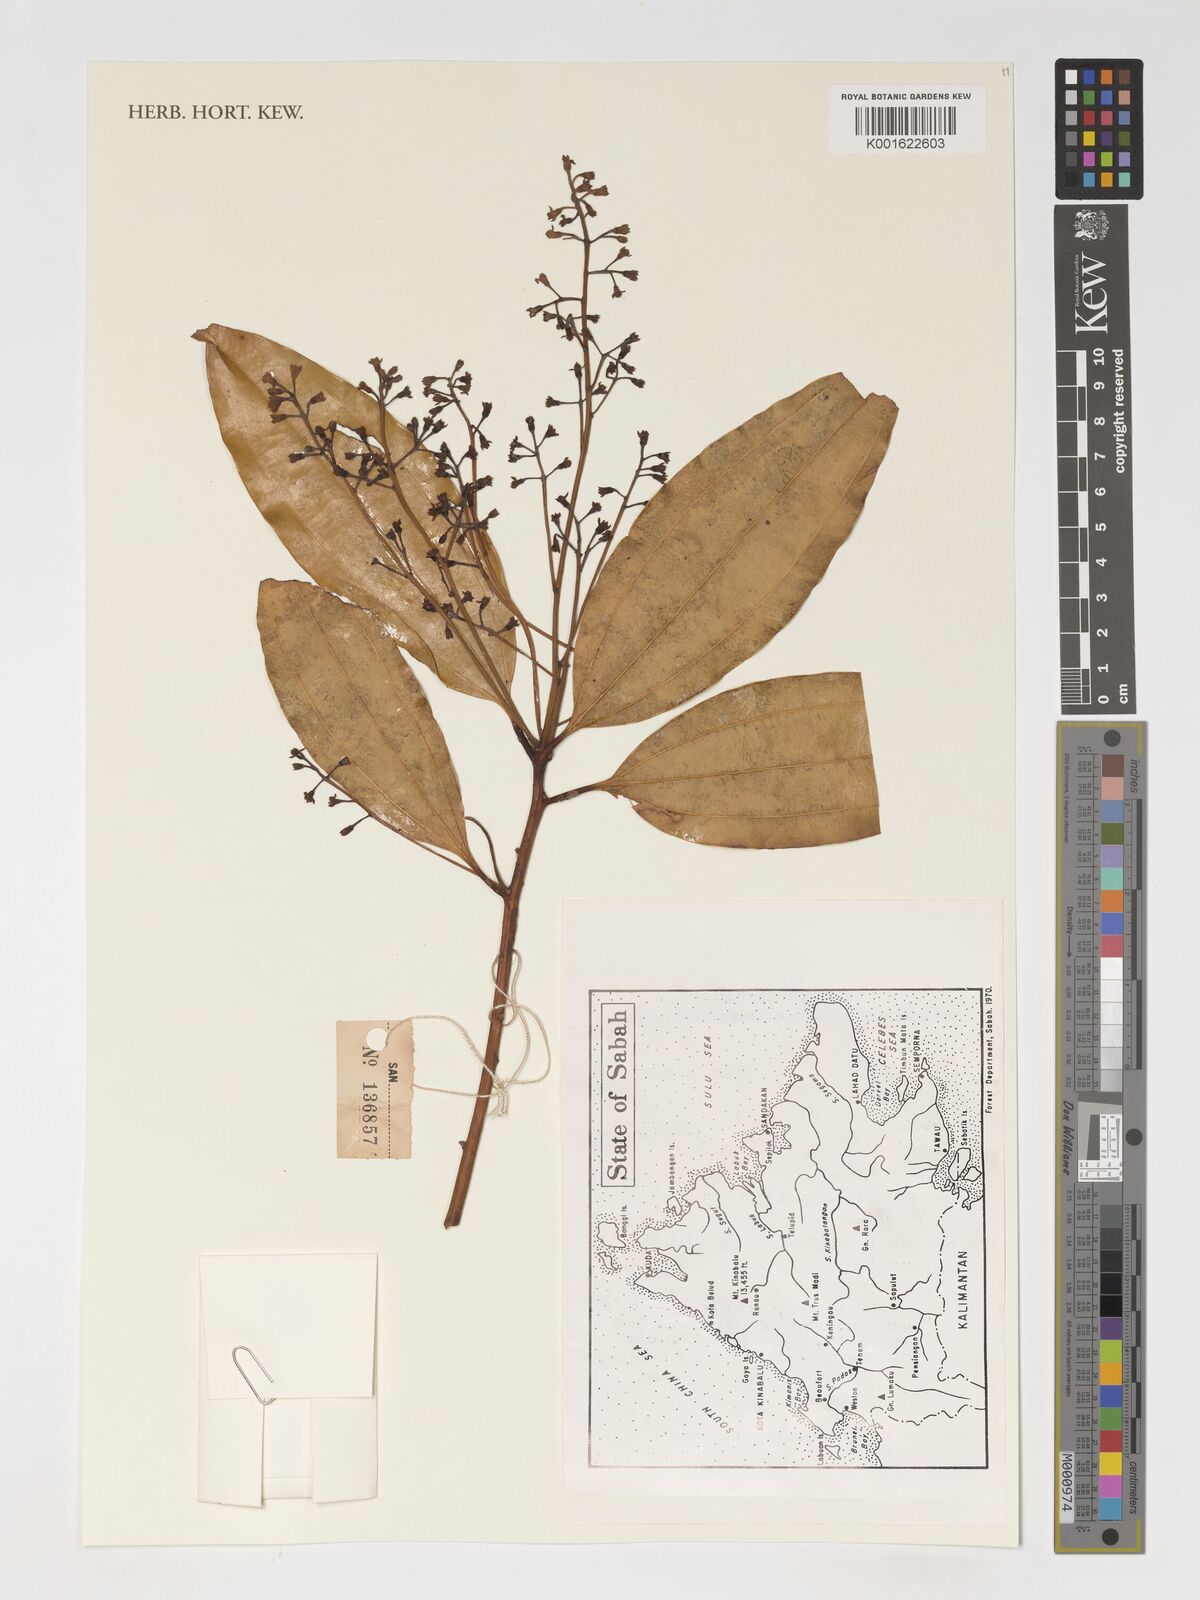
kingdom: Plantae
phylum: Tracheophyta
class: Magnoliopsida
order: Laurales
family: Lauraceae
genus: Cinnamomum
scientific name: Cinnamomum
